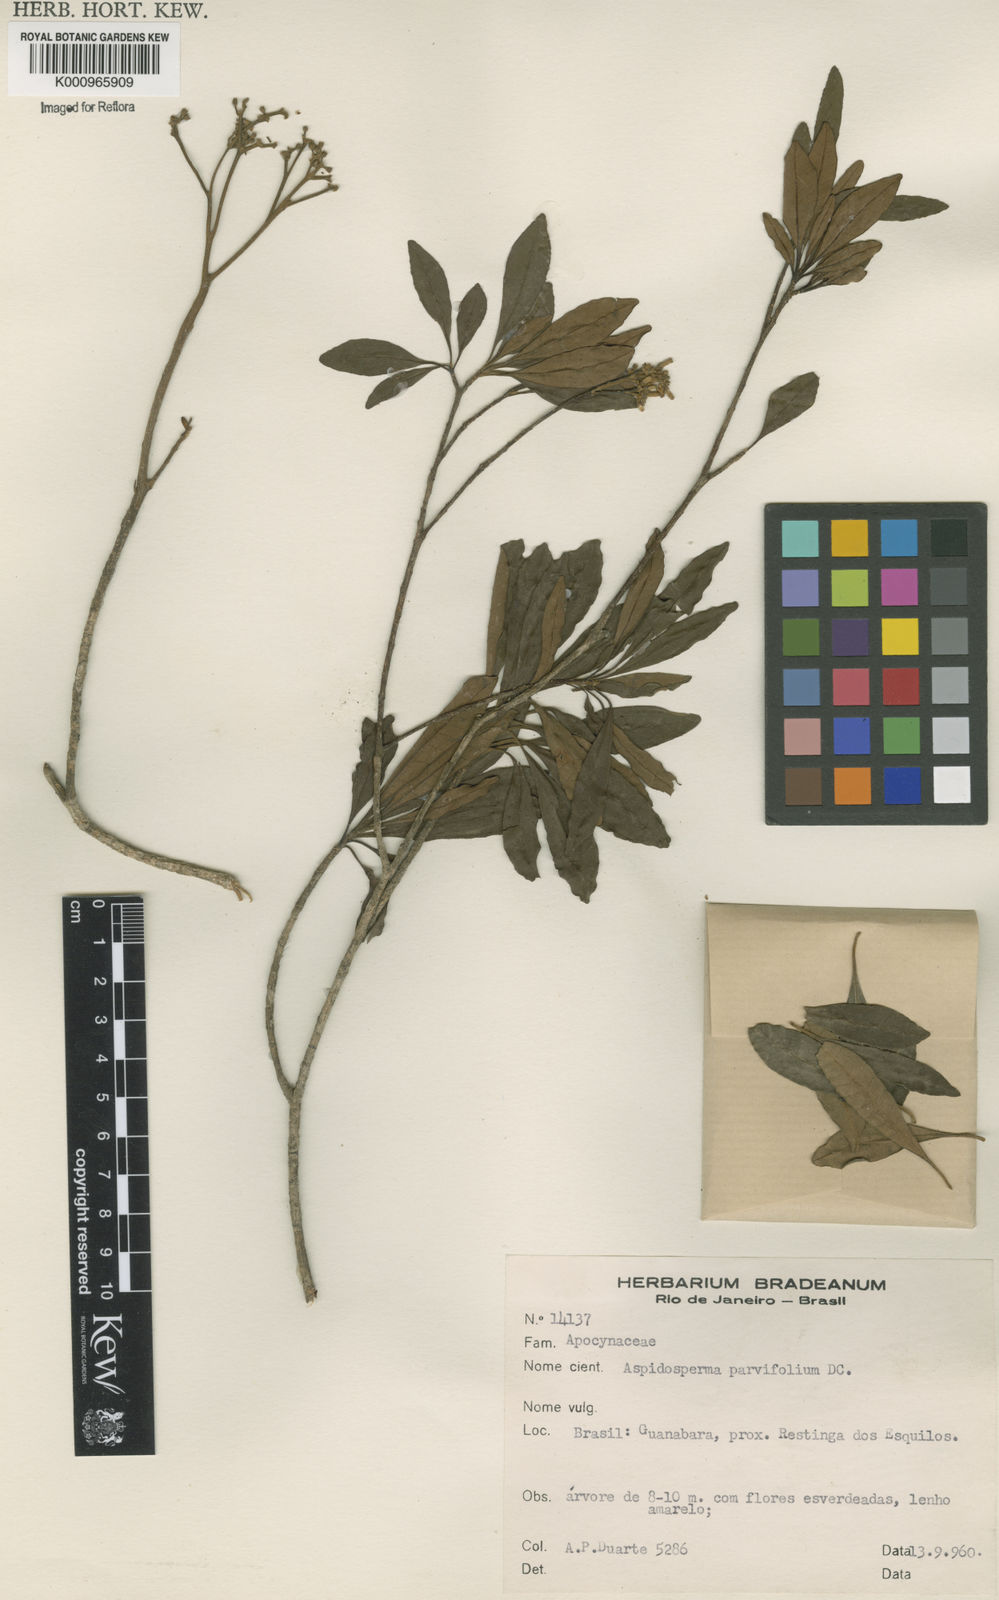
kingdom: Plantae
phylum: Tracheophyta
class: Magnoliopsida
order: Gentianales
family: Apocynaceae
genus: Aspidosperma
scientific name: Aspidosperma
